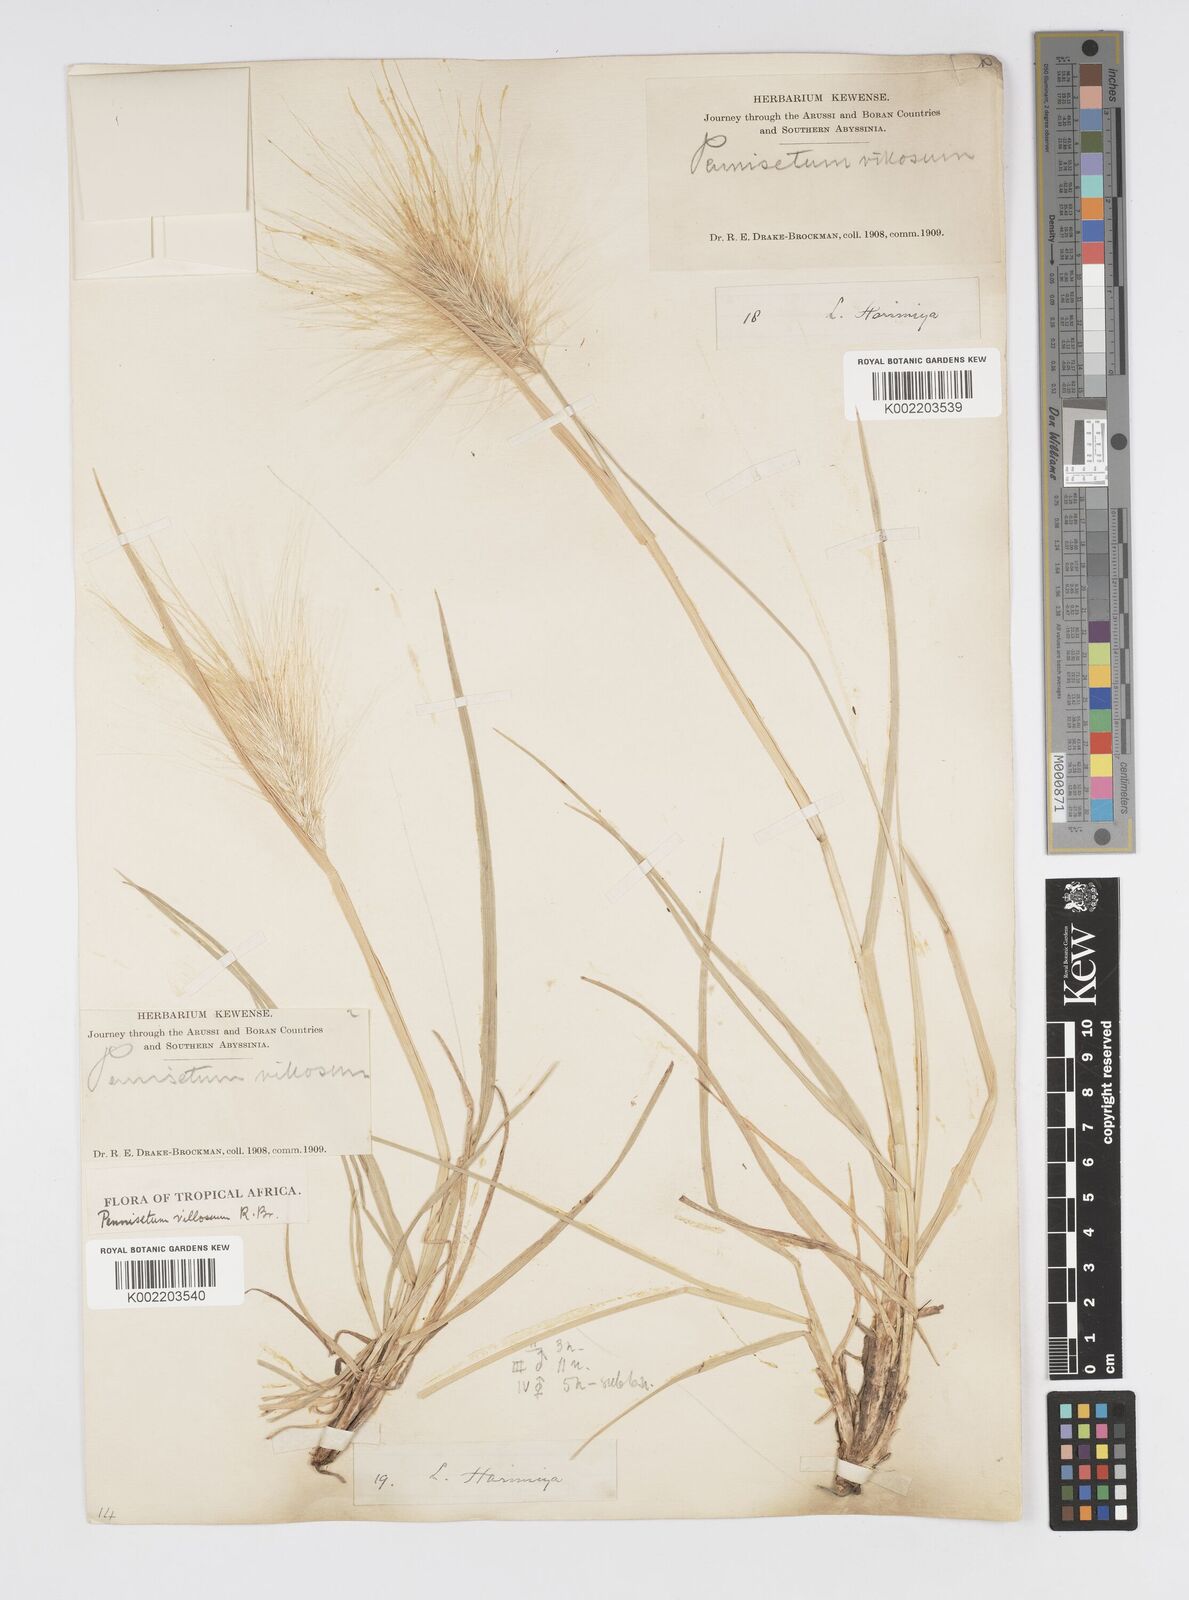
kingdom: Plantae
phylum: Tracheophyta
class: Liliopsida
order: Poales
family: Poaceae
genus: Cenchrus
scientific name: Cenchrus longisetus
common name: Feathertop
